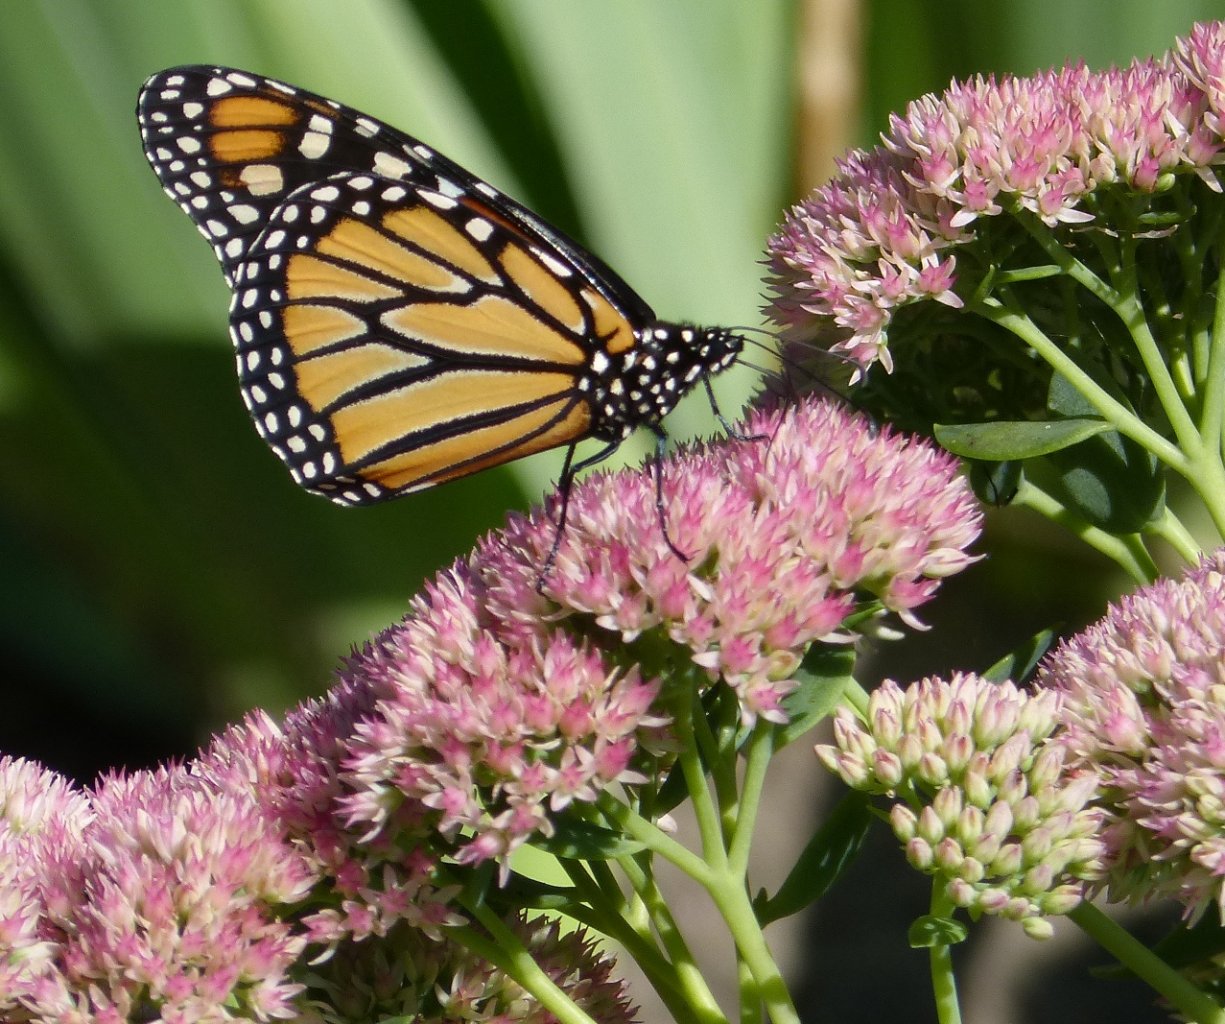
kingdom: Animalia
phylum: Arthropoda
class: Insecta
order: Lepidoptera
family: Nymphalidae
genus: Danaus
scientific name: Danaus plexippus
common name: Monarch
